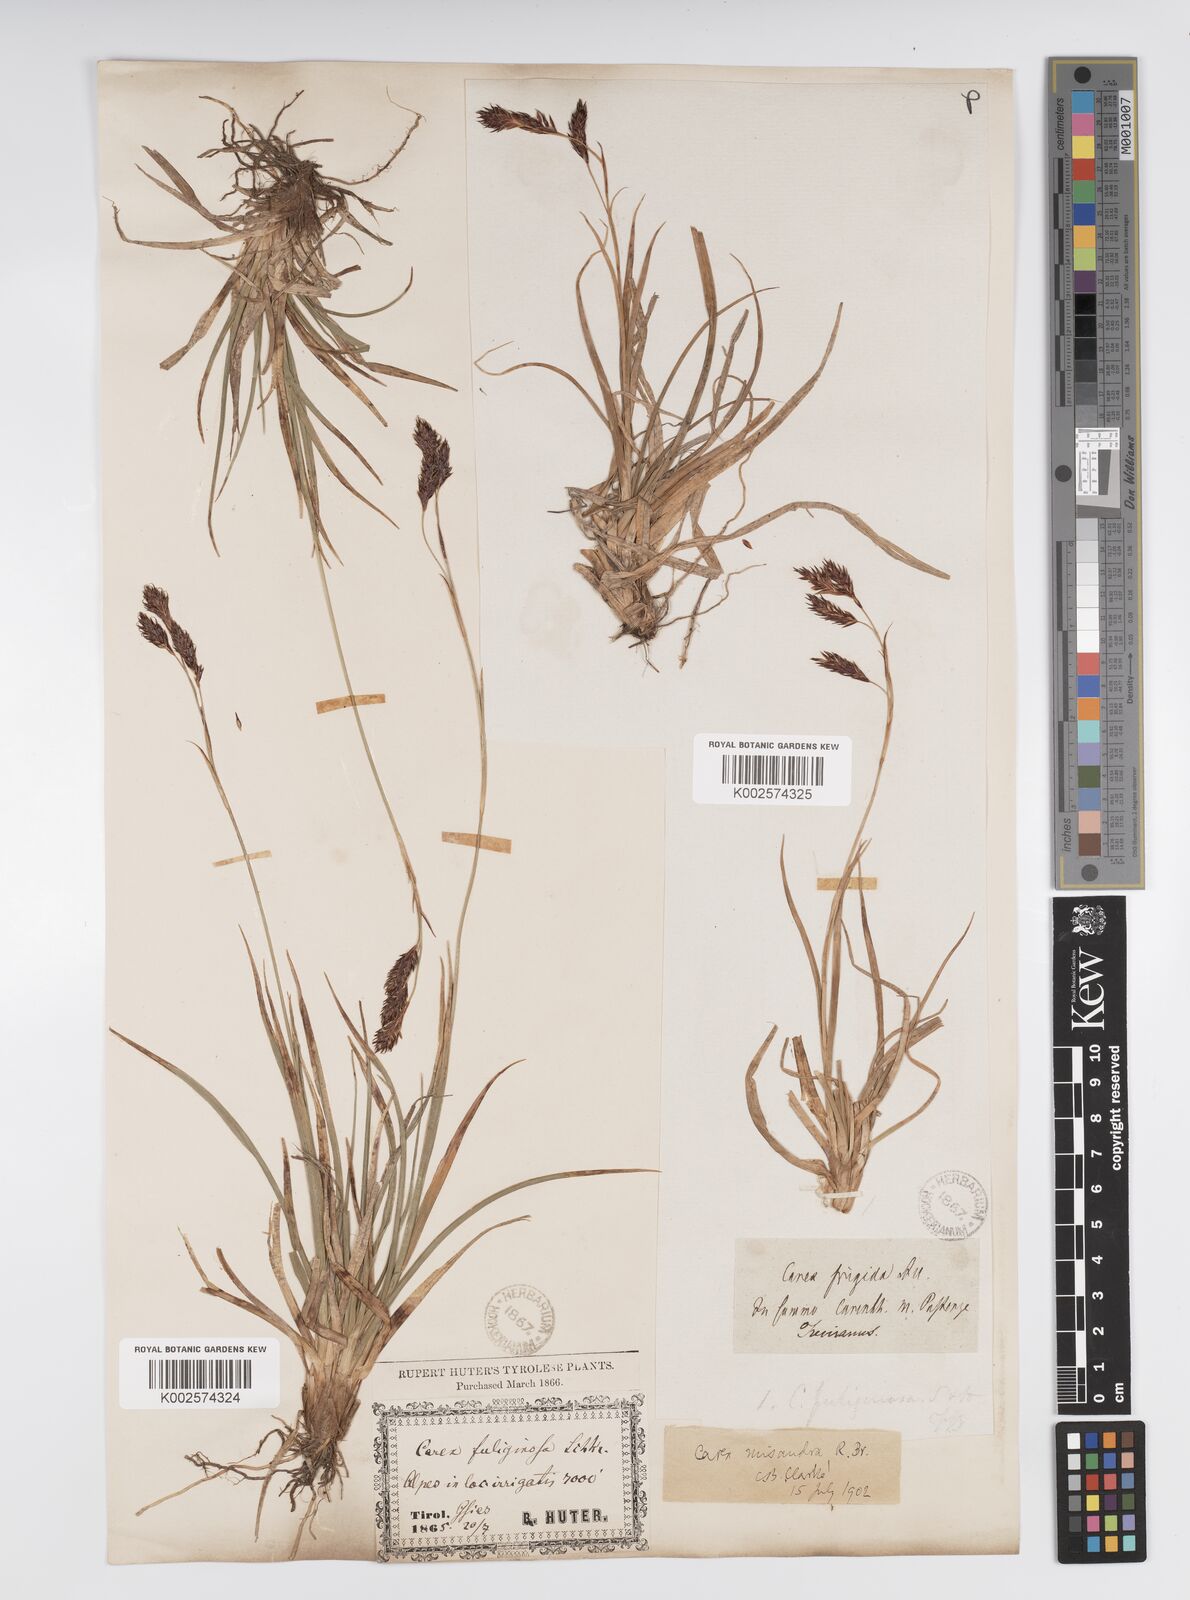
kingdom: Plantae
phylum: Tracheophyta
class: Liliopsida
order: Poales
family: Cyperaceae
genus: Carex
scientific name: Carex fuliginosa
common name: Few-flowered sedge
